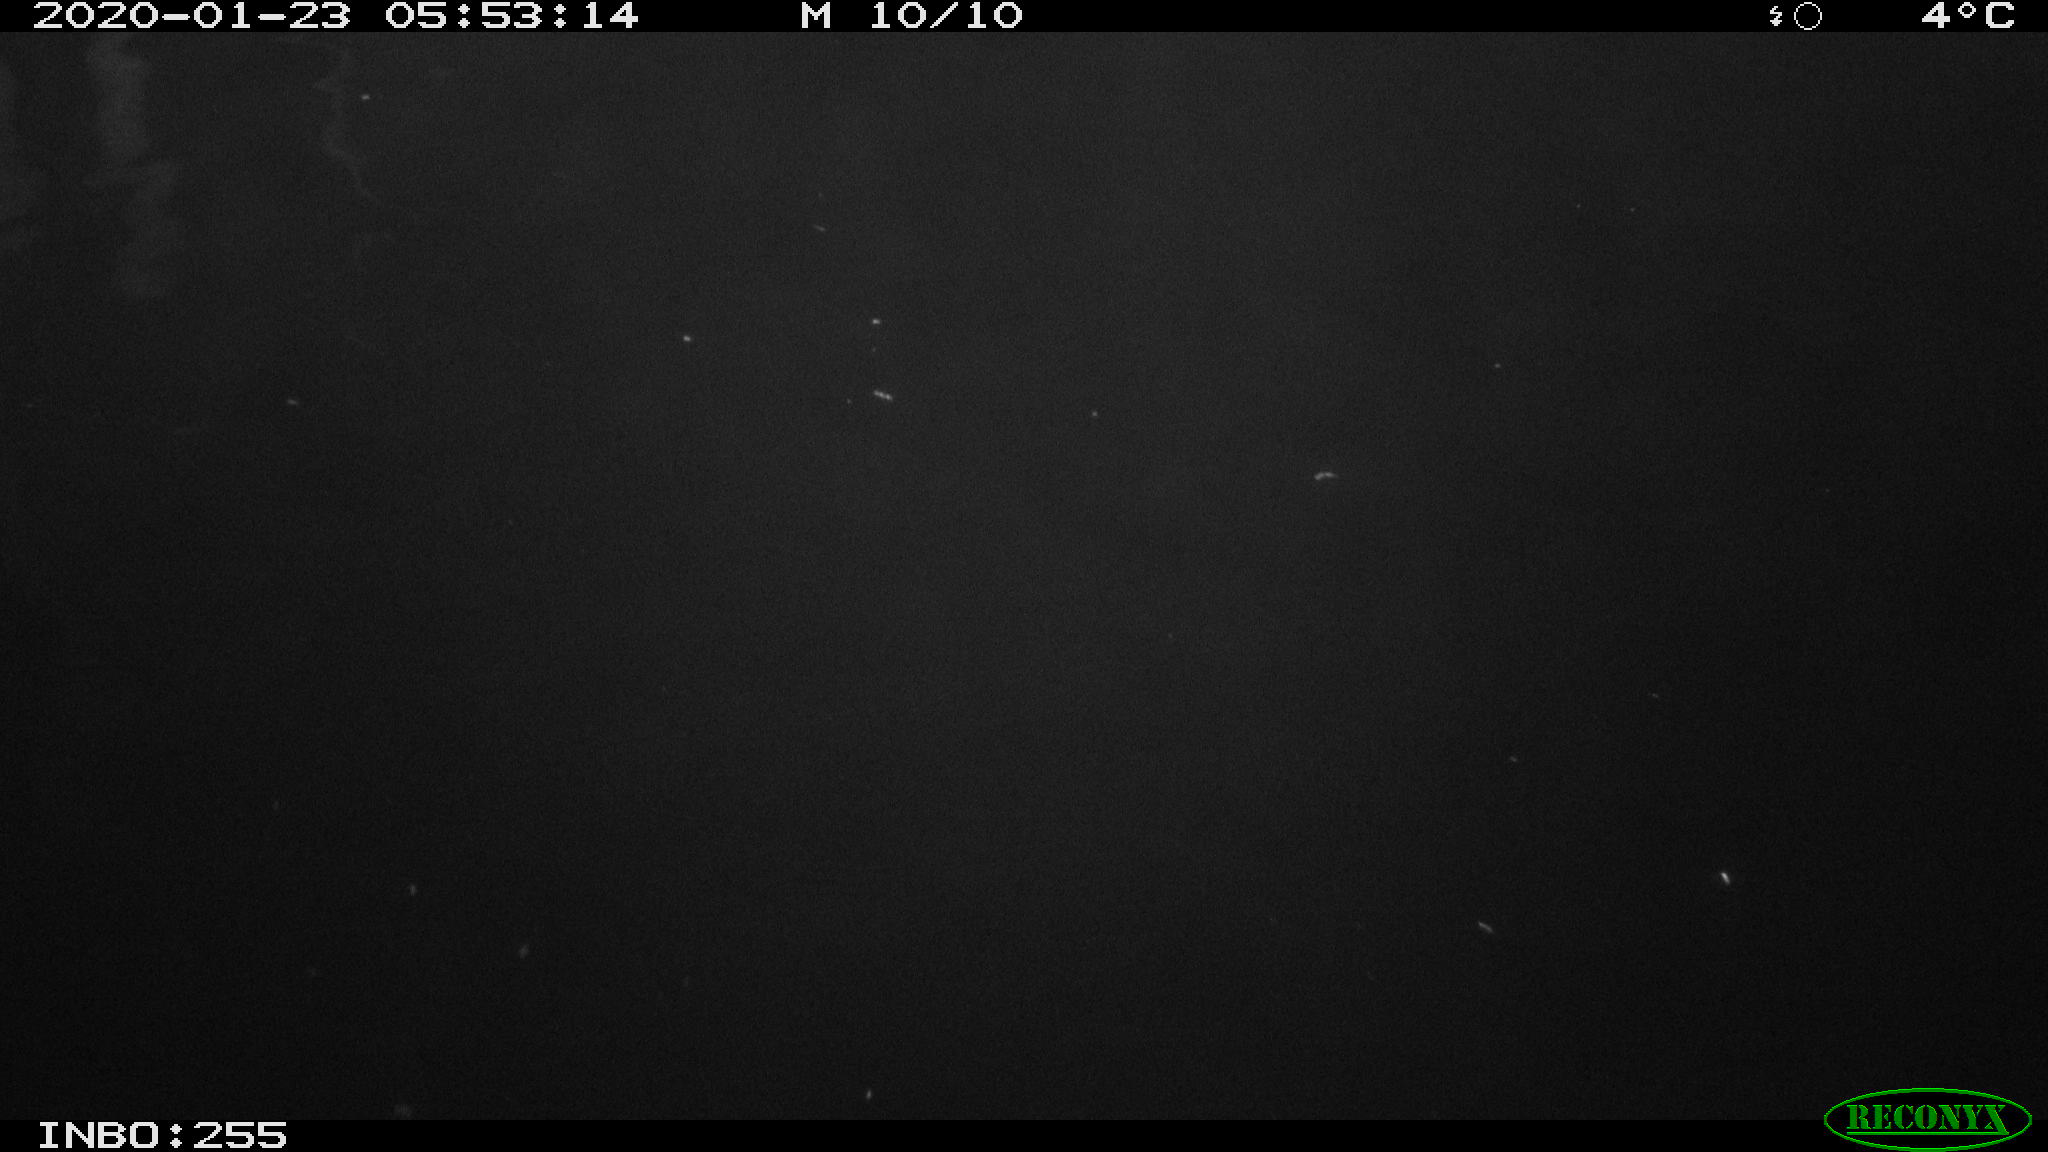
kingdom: Animalia
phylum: Chordata
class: Mammalia
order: Rodentia
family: Cricetidae
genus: Ondatra
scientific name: Ondatra zibethicus
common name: Muskrat
